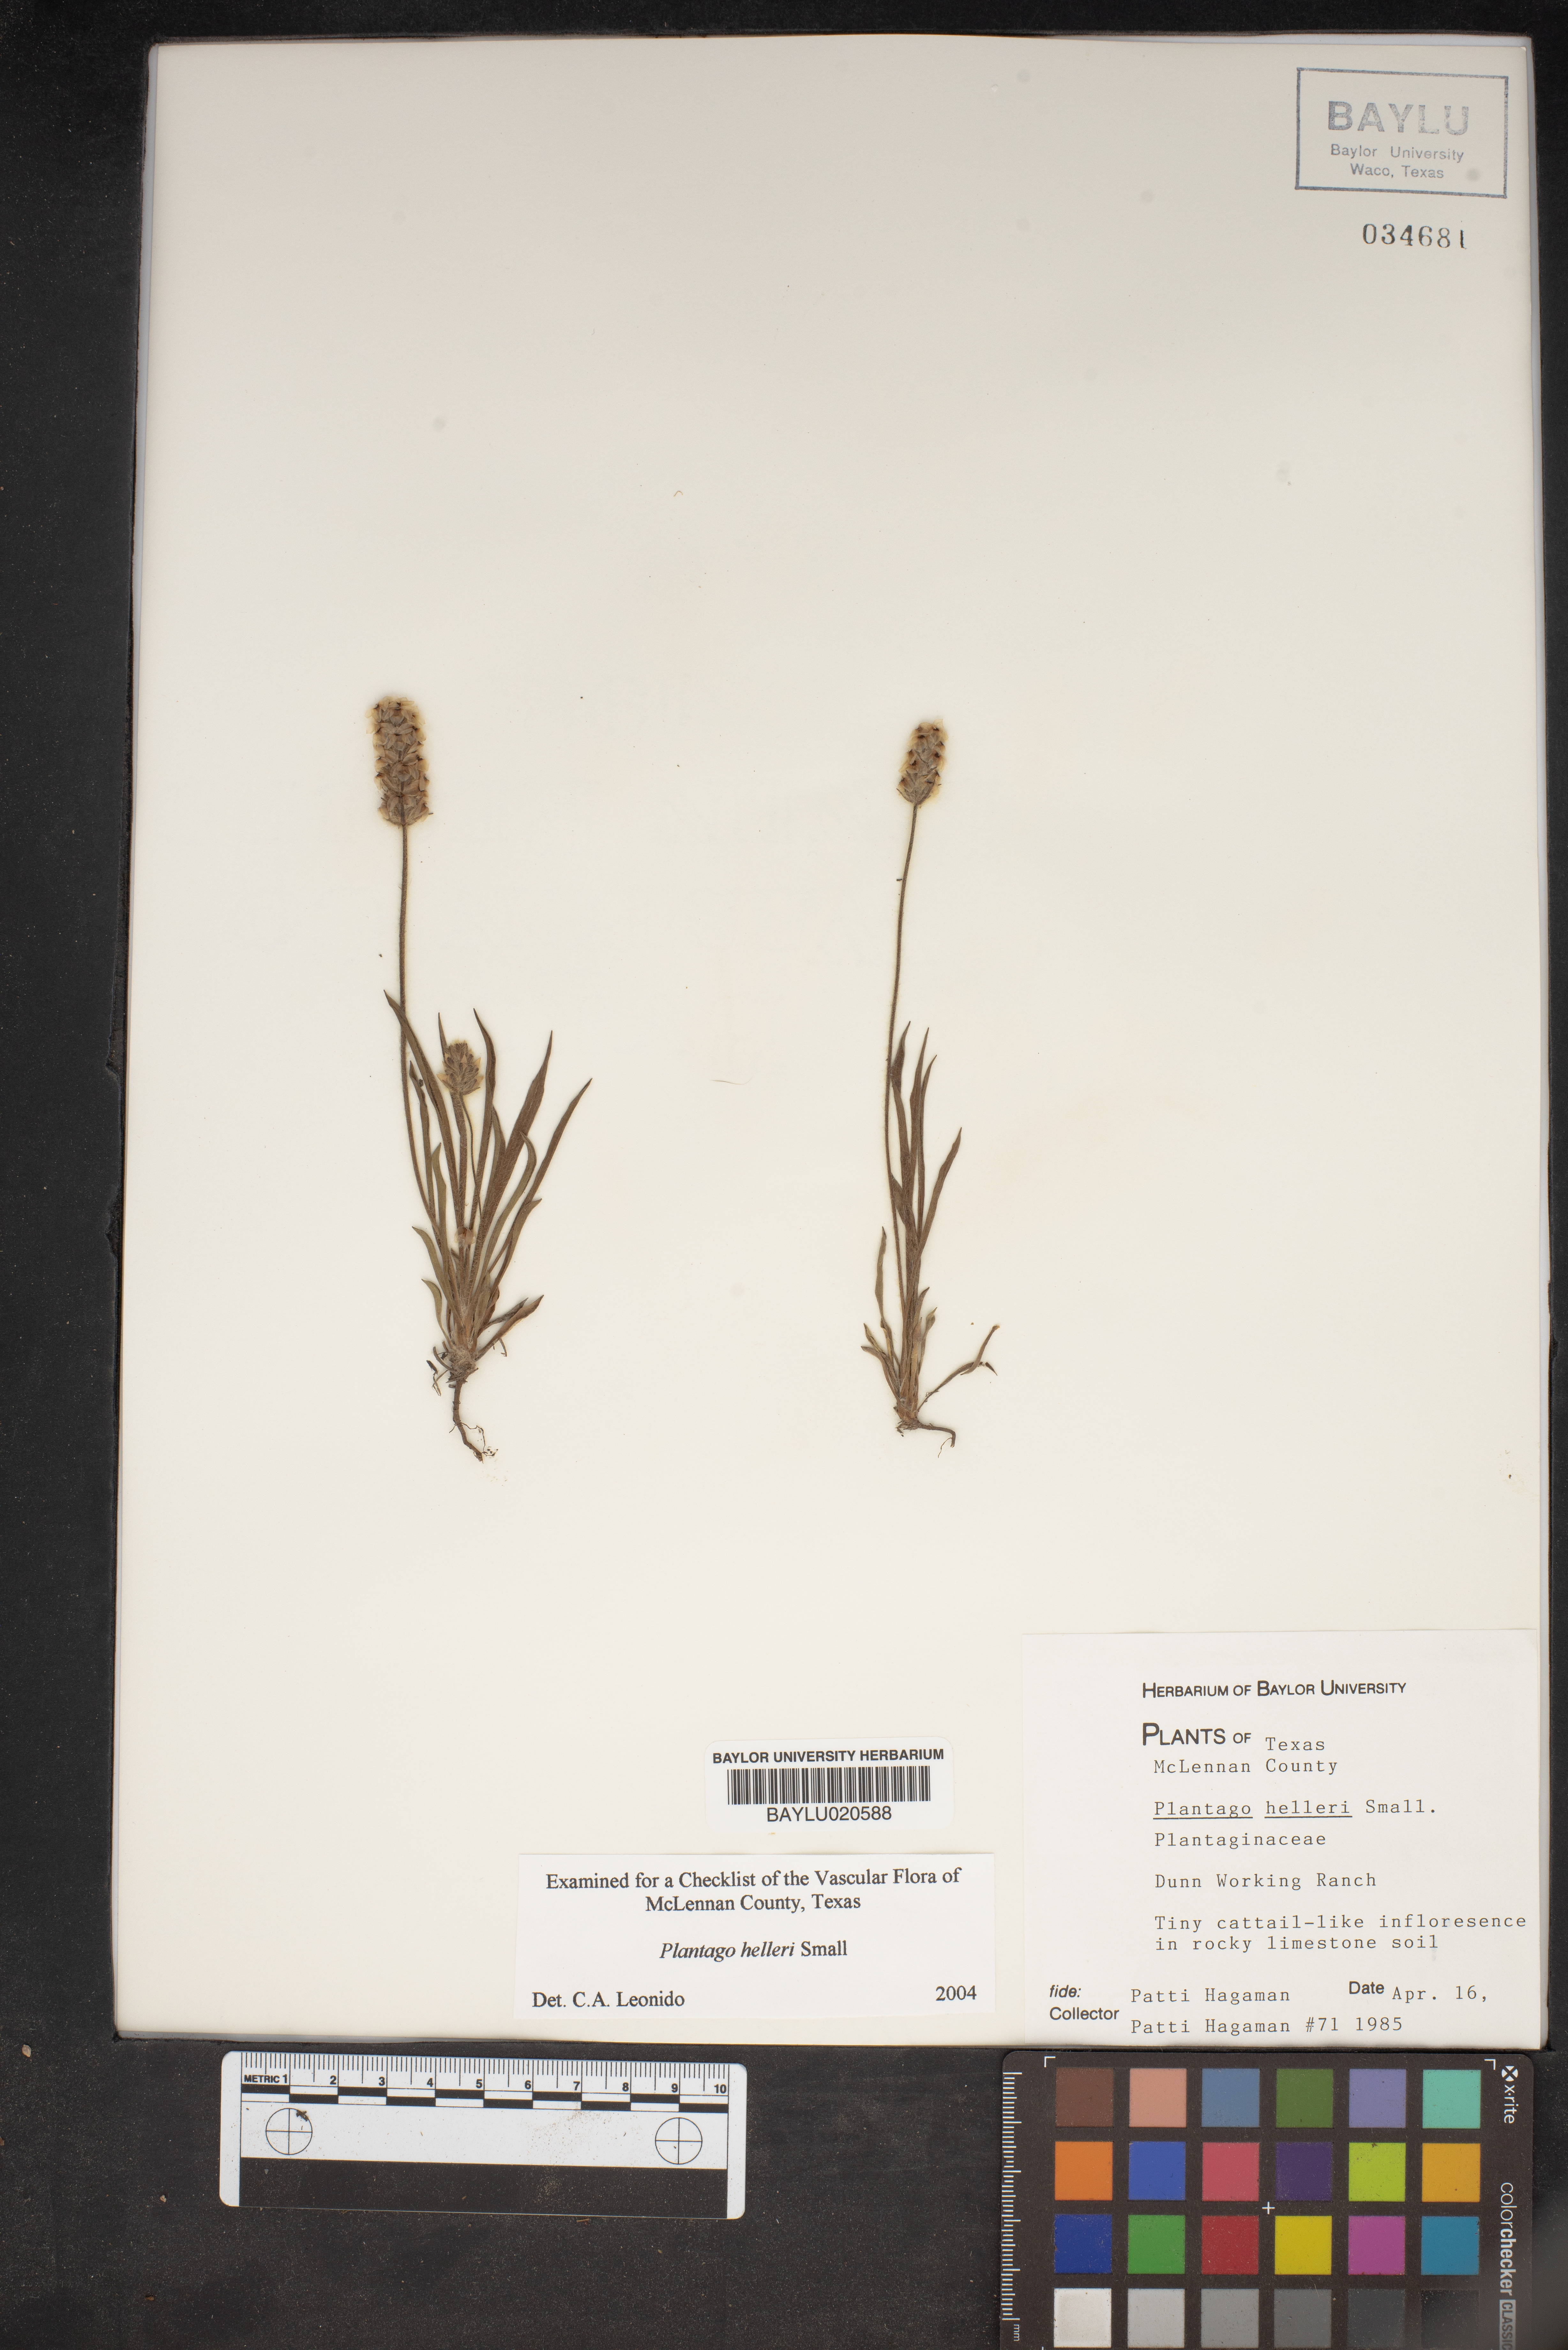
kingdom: Plantae
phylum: Tracheophyta
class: Magnoliopsida
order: Lamiales
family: Plantaginaceae
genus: Plantago
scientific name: Plantago helleri
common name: Heller's plantain
